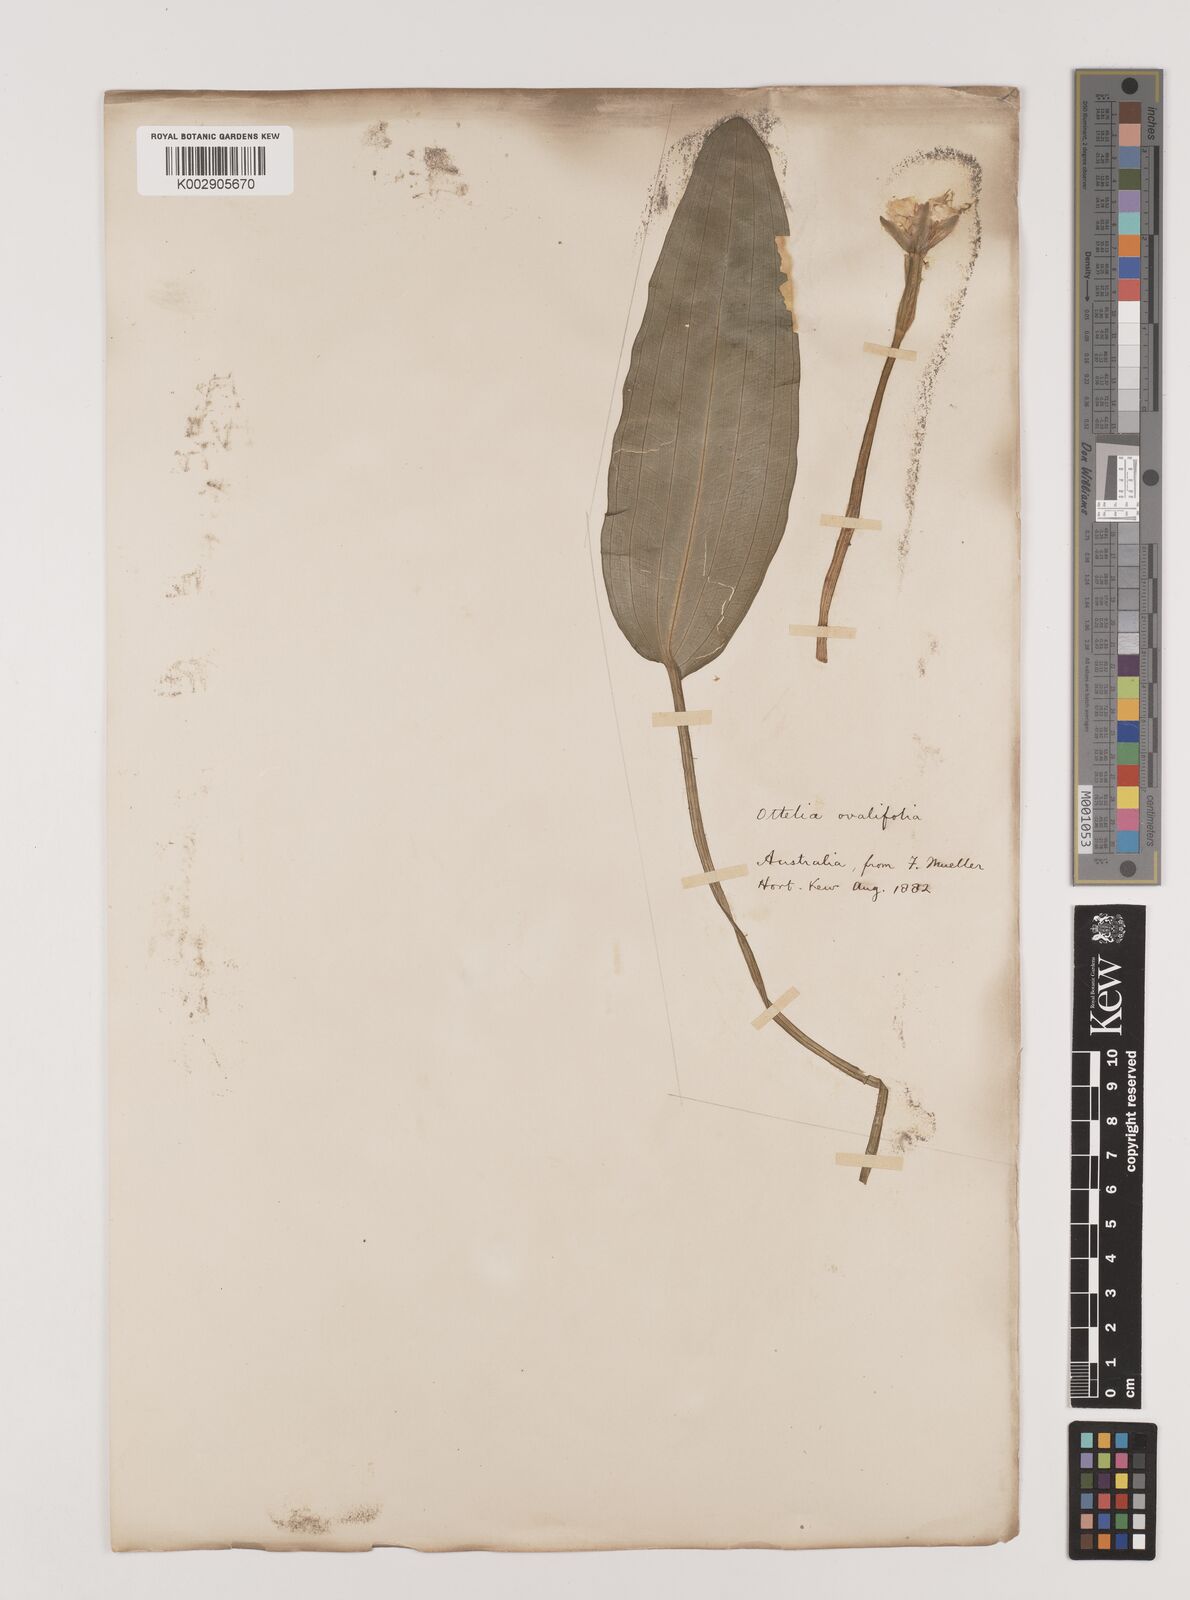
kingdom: Plantae
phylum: Tracheophyta
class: Liliopsida
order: Alismatales
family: Hydrocharitaceae
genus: Ottelia
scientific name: Ottelia ovalifolia
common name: Swamp-lily
